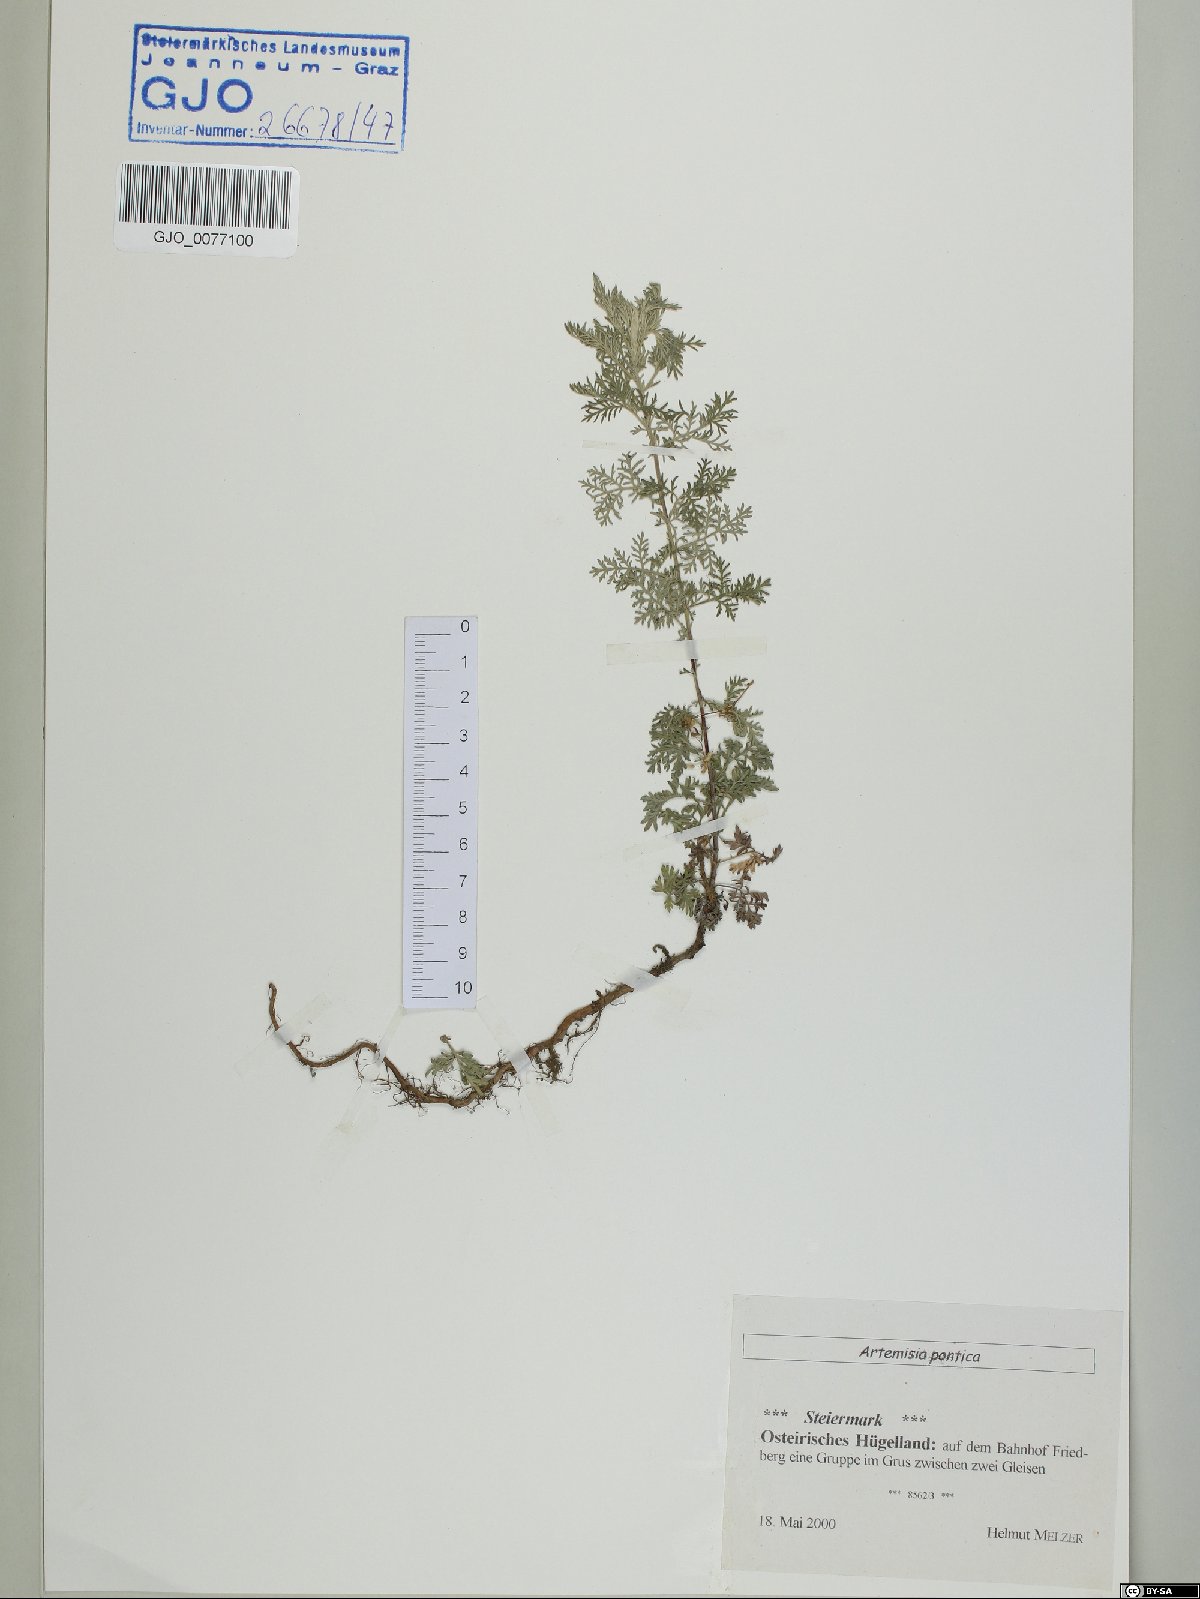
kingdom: Plantae
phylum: Tracheophyta
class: Magnoliopsida
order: Asterales
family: Asteraceae
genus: Artemisia
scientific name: Artemisia pontica
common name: Roman wormwood
